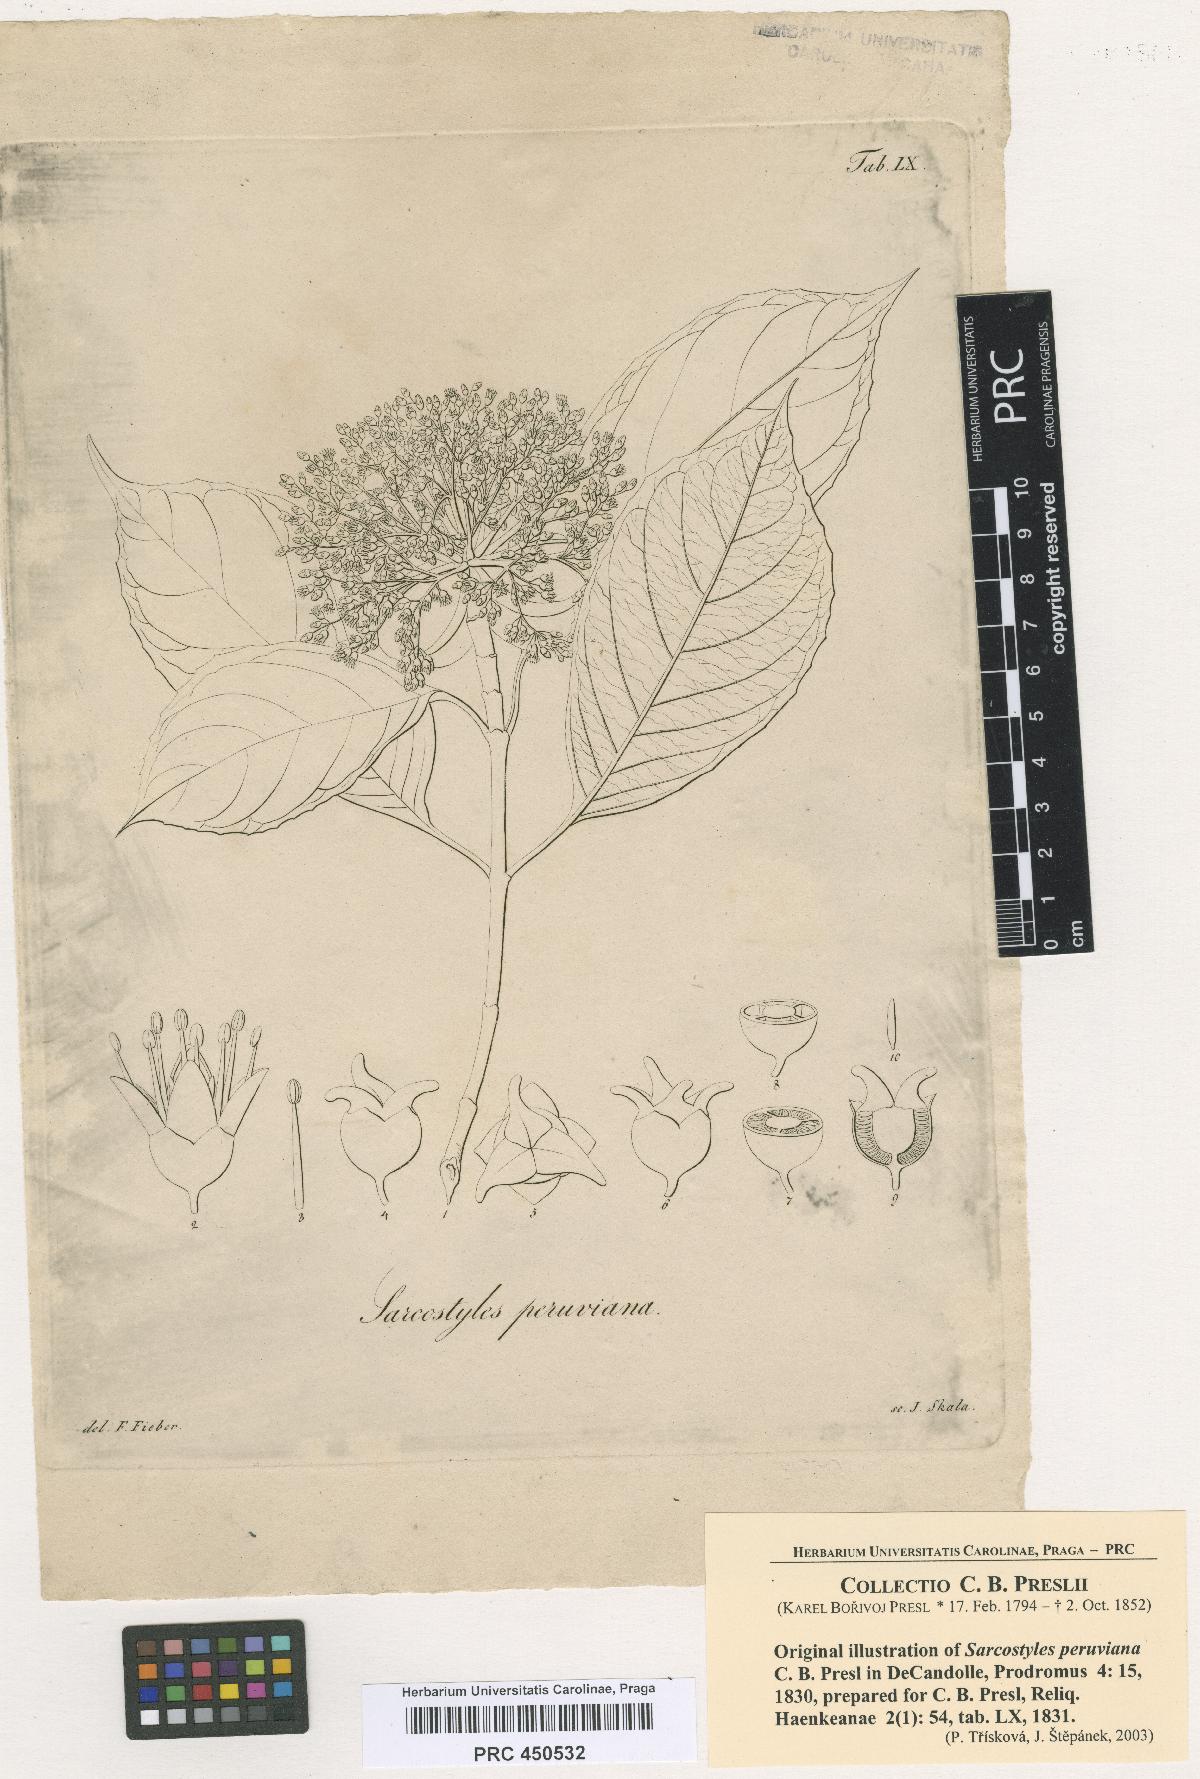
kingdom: Plantae
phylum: Tracheophyta
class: Magnoliopsida
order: Cornales
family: Hydrangeaceae
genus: Hydrangea
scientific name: Hydrangea Sarcostyles peruviana
